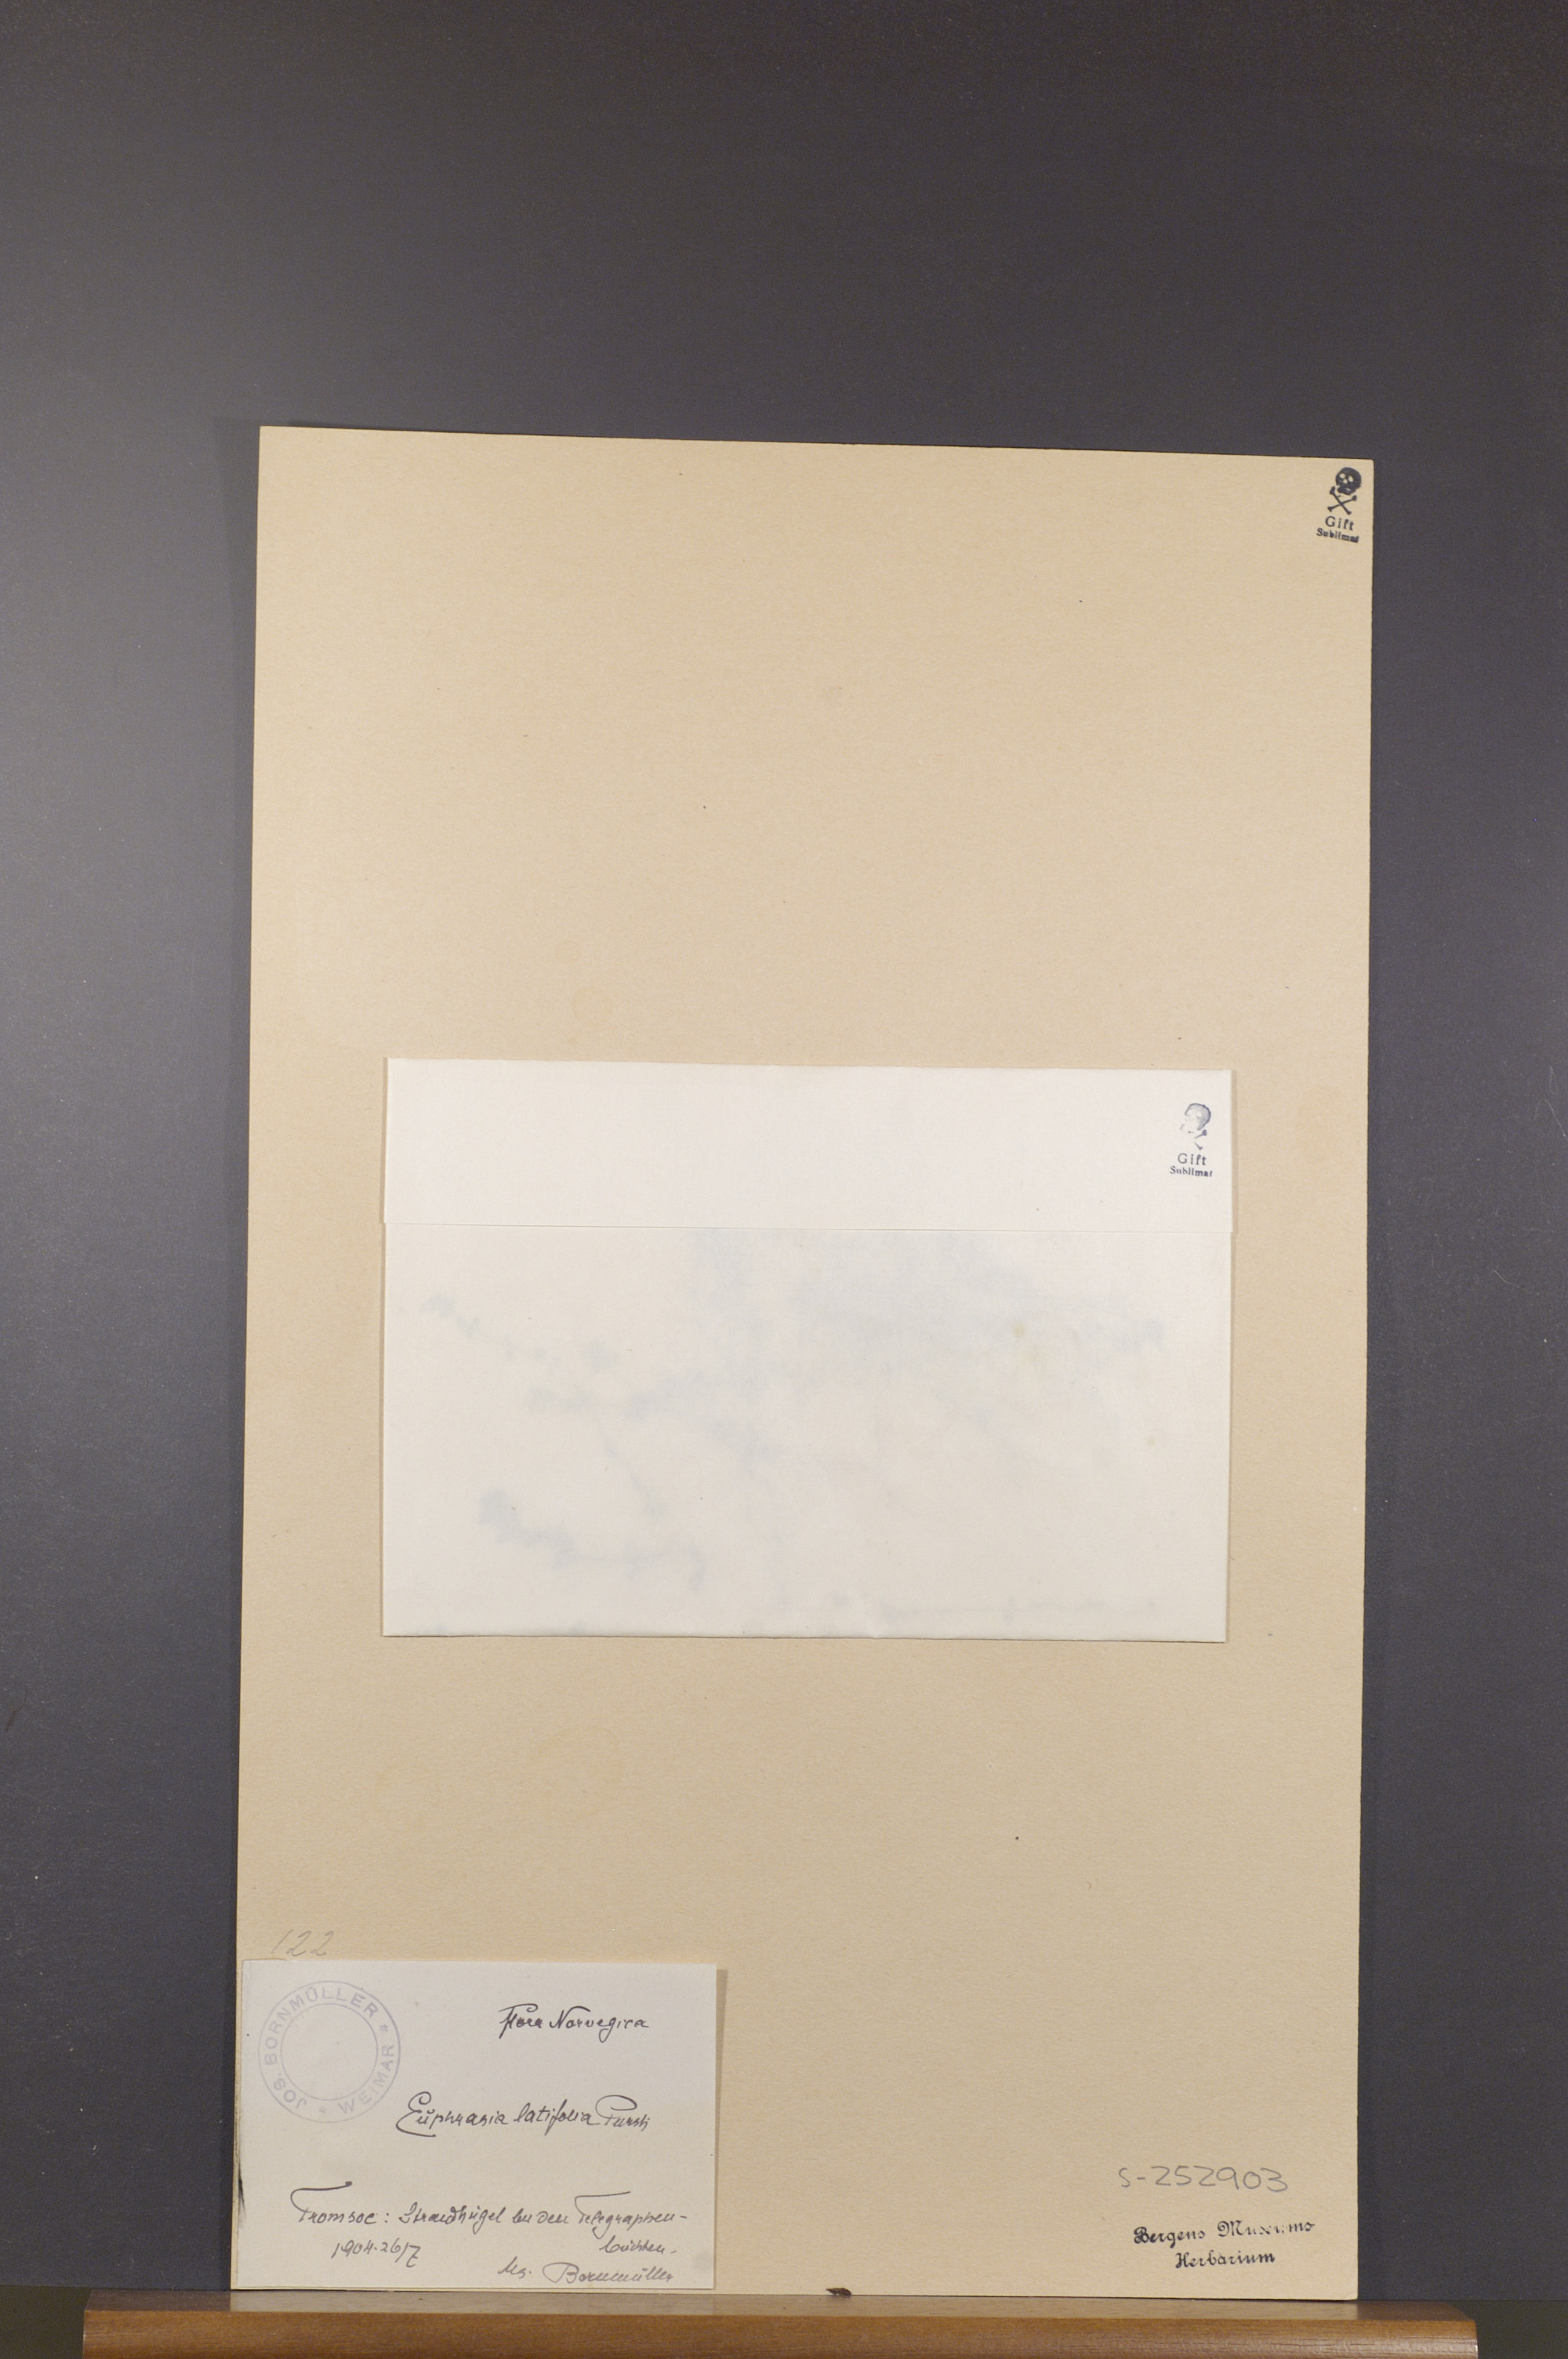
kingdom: Plantae
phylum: Tracheophyta
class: Magnoliopsida
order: Lamiales
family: Orobanchaceae
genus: Euphrasia
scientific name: Euphrasia wettsteinii
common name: Wettstein's eyebright
